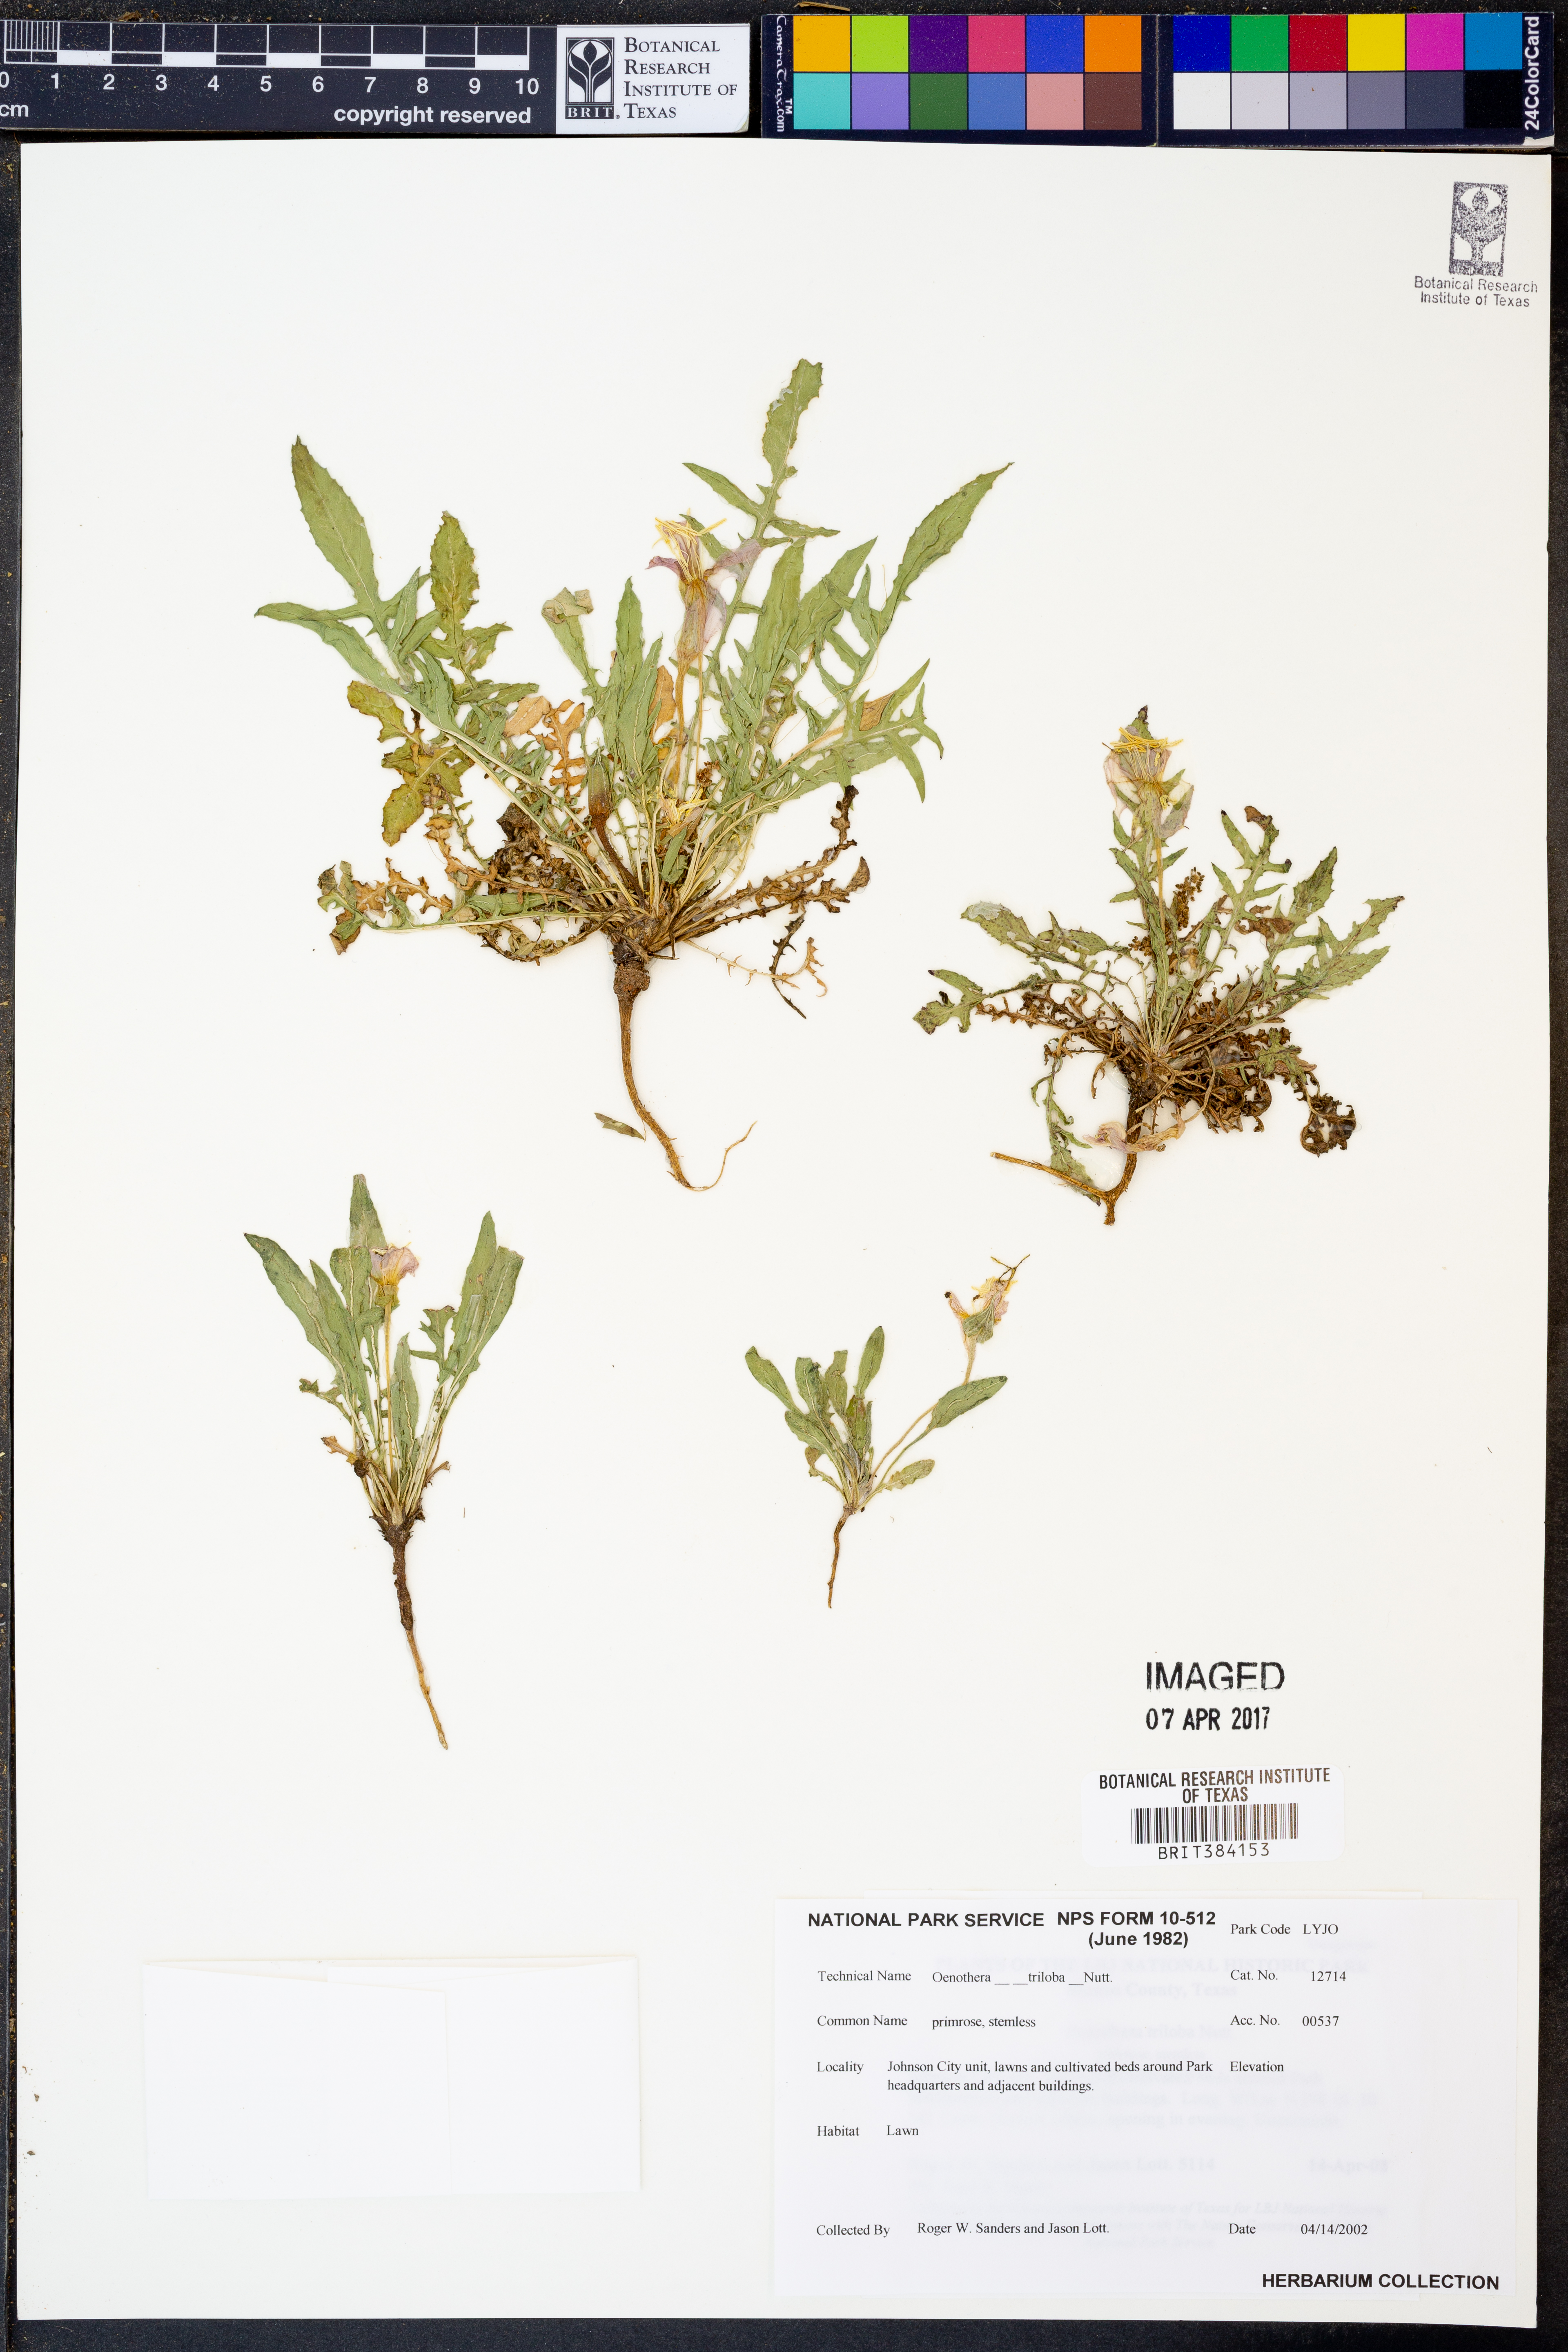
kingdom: Plantae
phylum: Tracheophyta
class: Magnoliopsida
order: Myrtales
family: Onagraceae
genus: Oenothera
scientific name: Oenothera triloba
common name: Sessile evening-primrose
